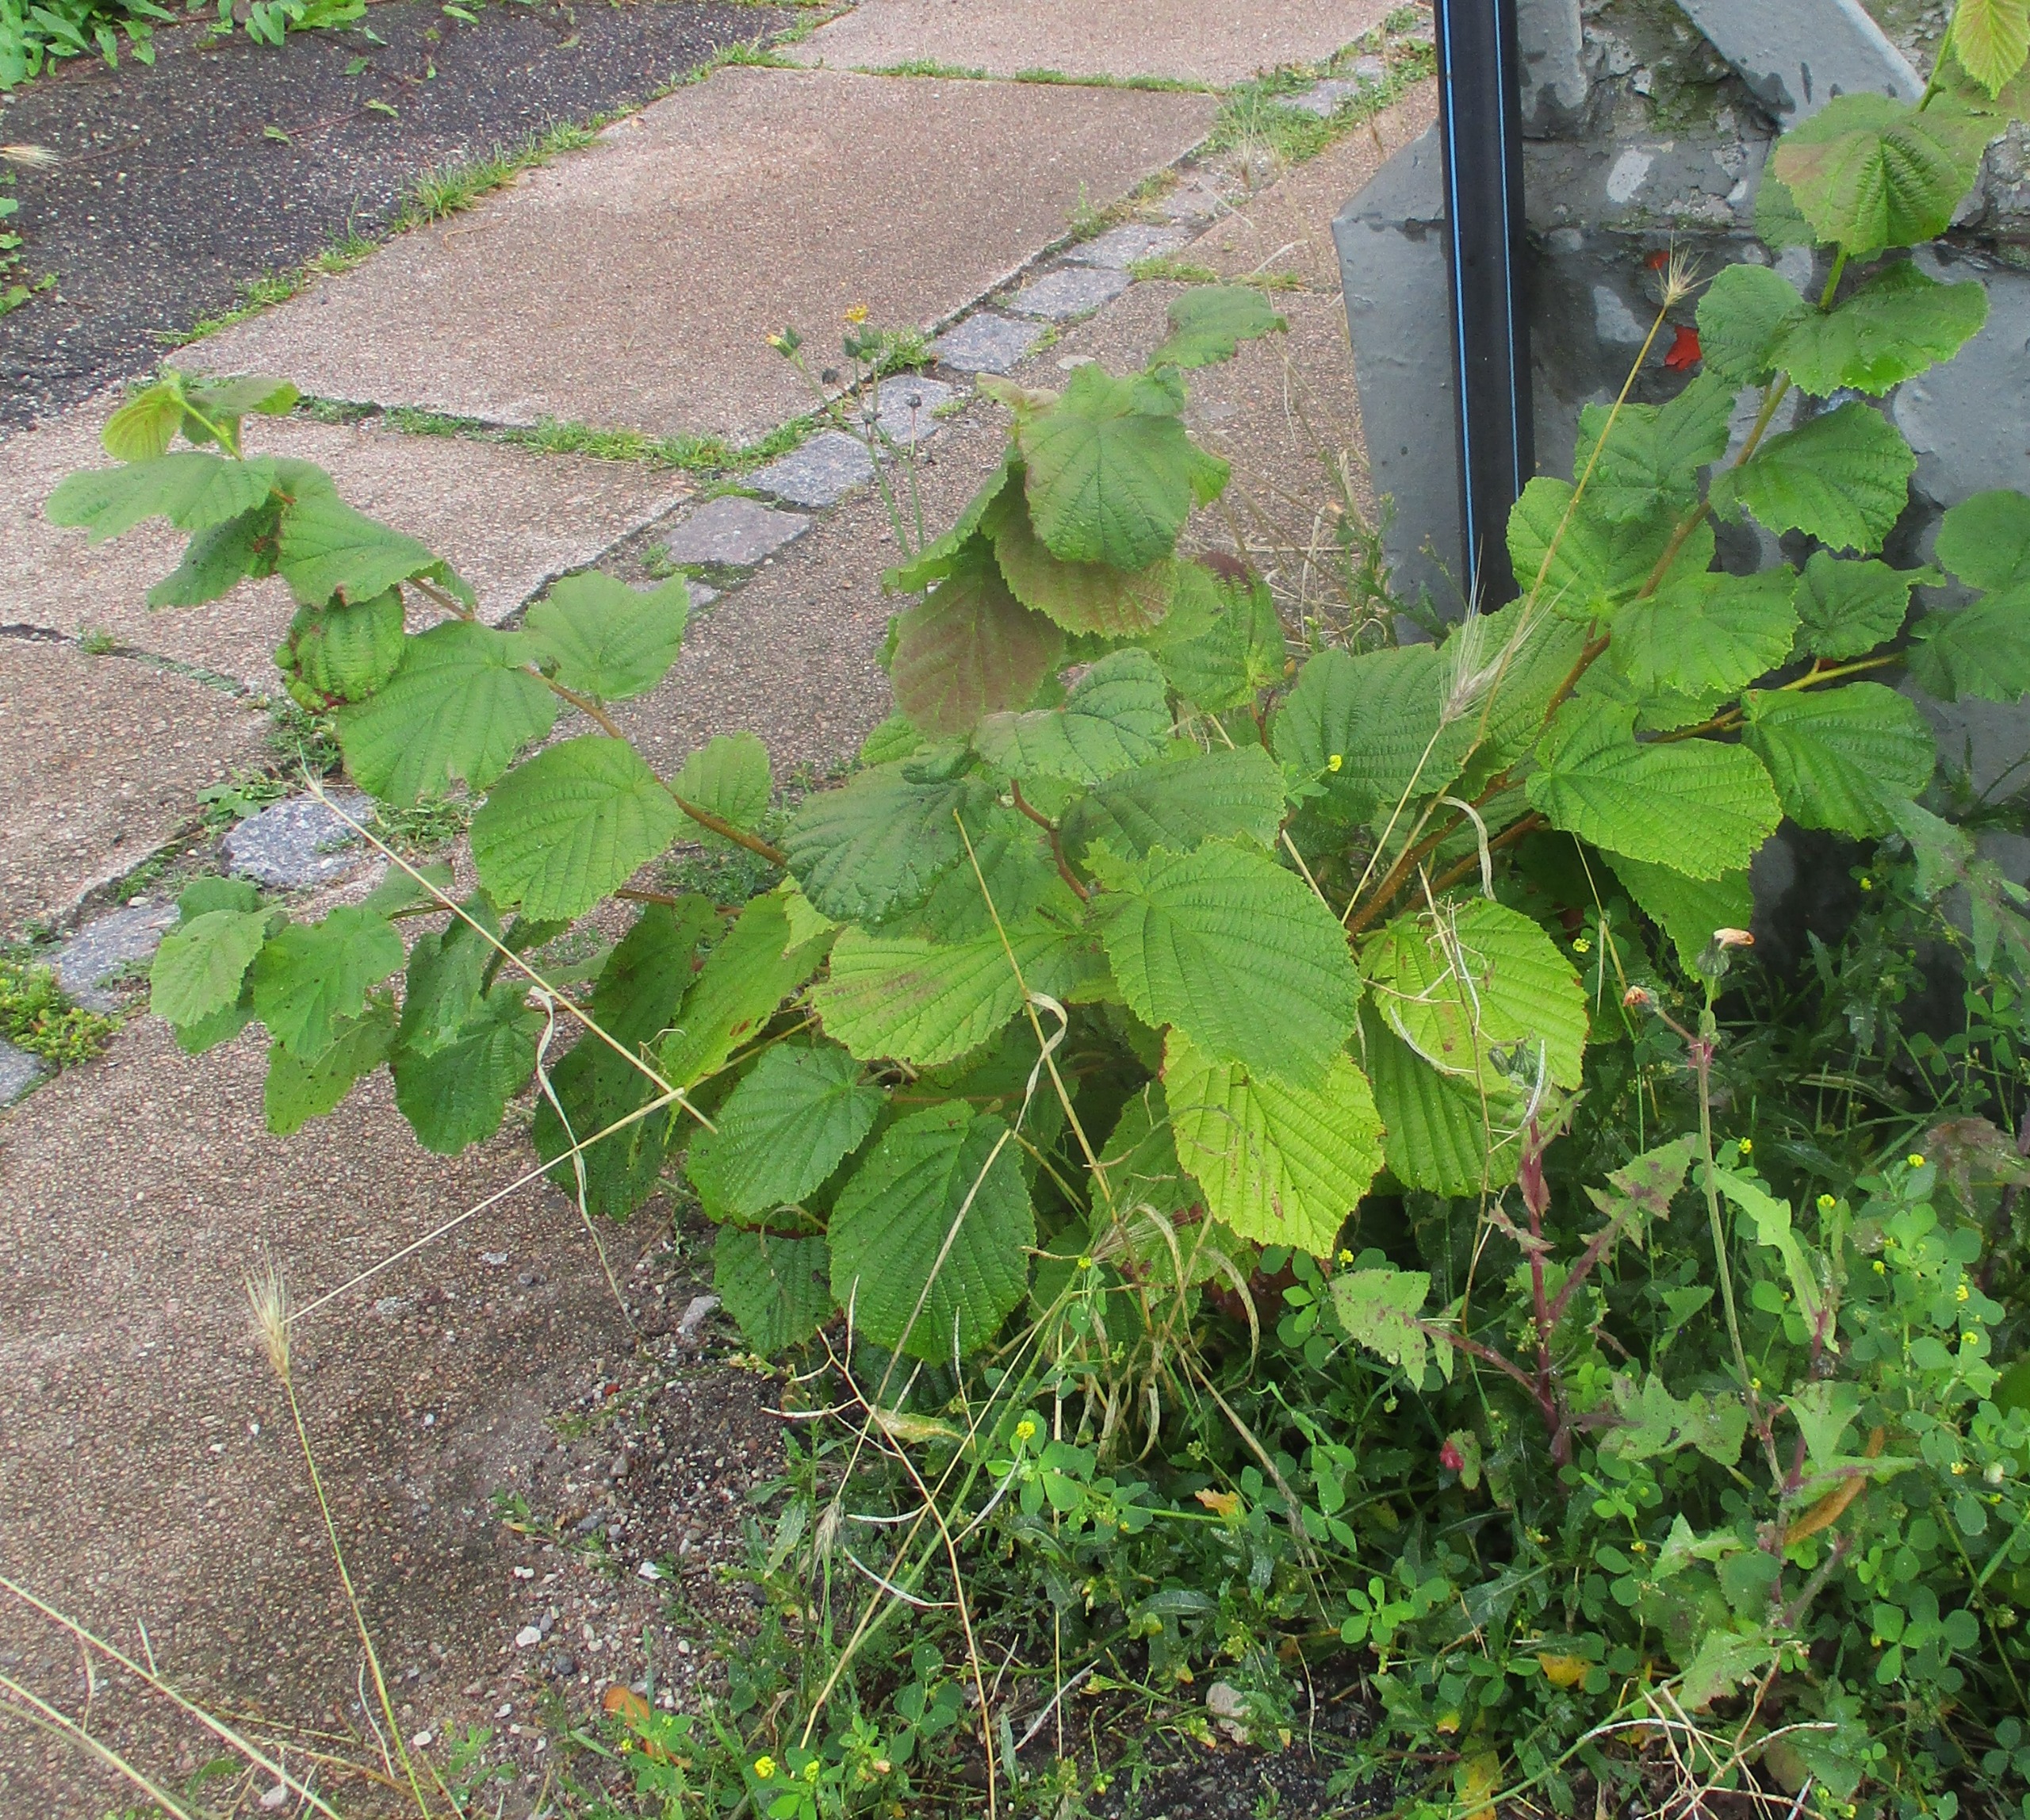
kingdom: Plantae
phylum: Tracheophyta
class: Magnoliopsida
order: Fagales
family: Betulaceae
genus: Corylus
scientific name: Corylus avellana
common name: Hassel
